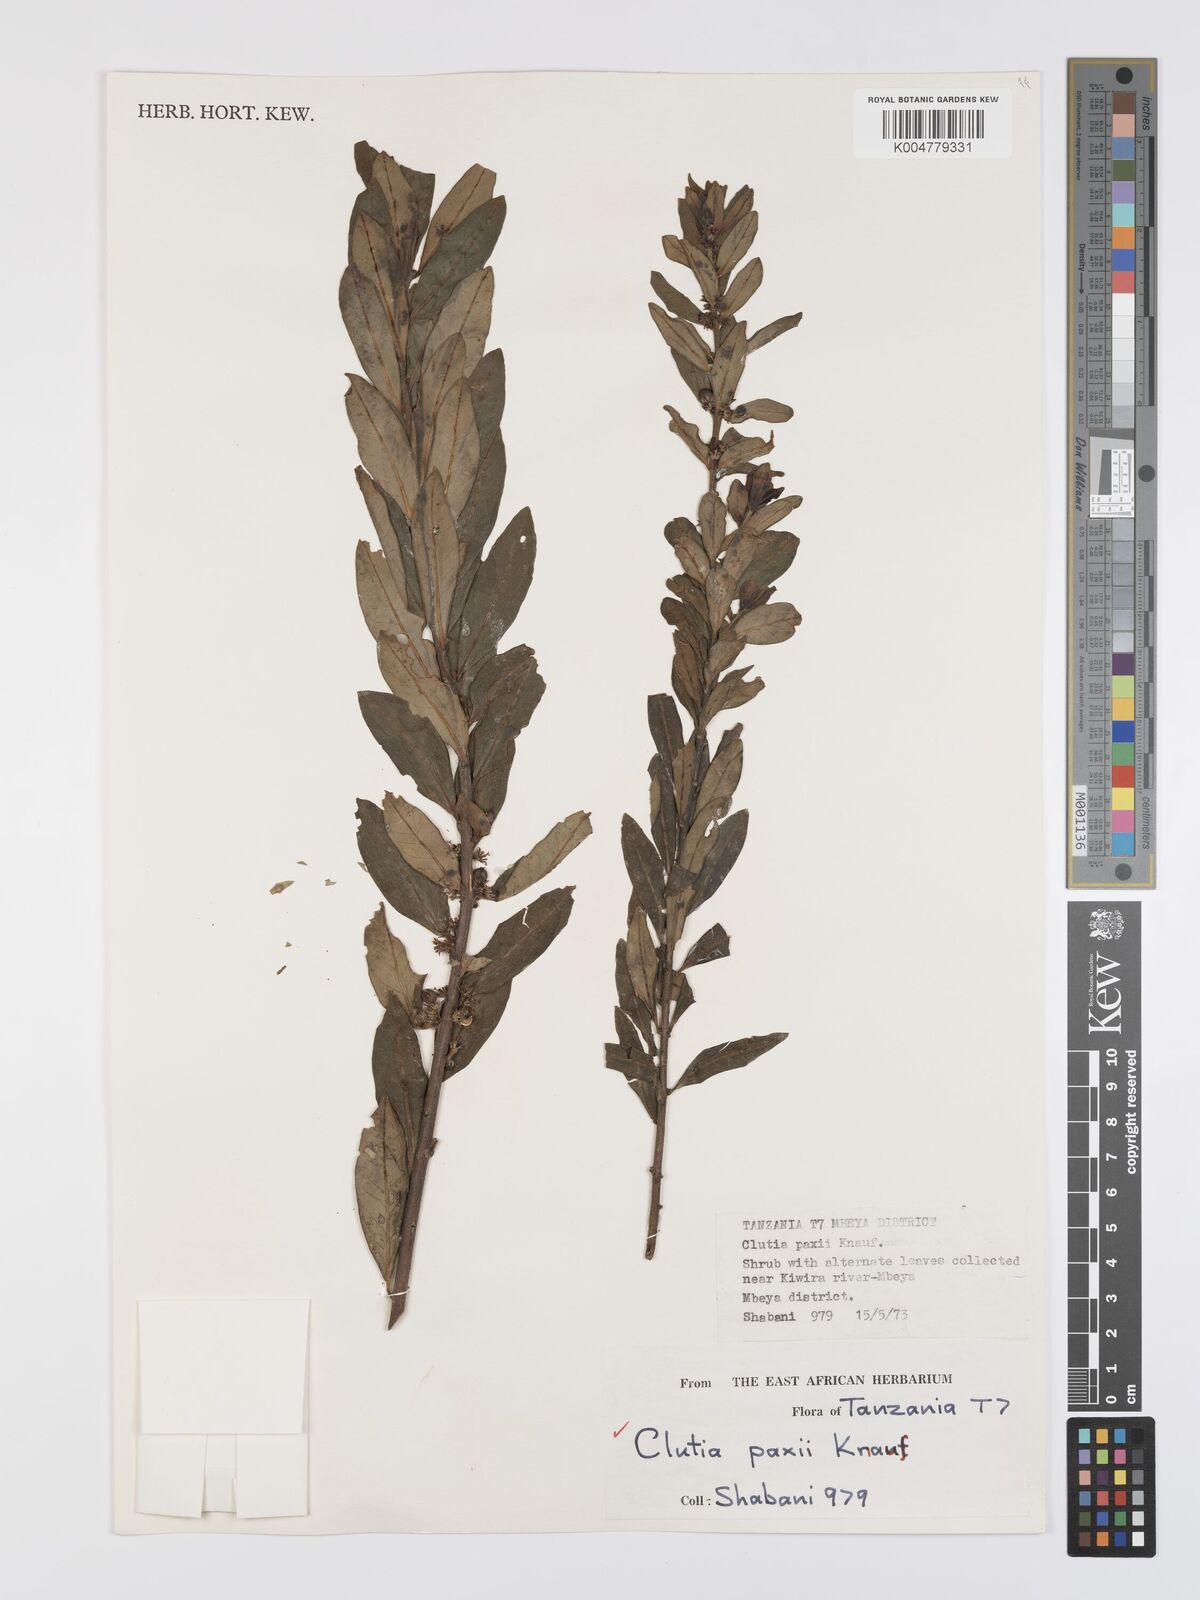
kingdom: Plantae
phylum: Tracheophyta
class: Magnoliopsida
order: Malpighiales
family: Peraceae
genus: Clutia
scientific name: Clutia paxii
